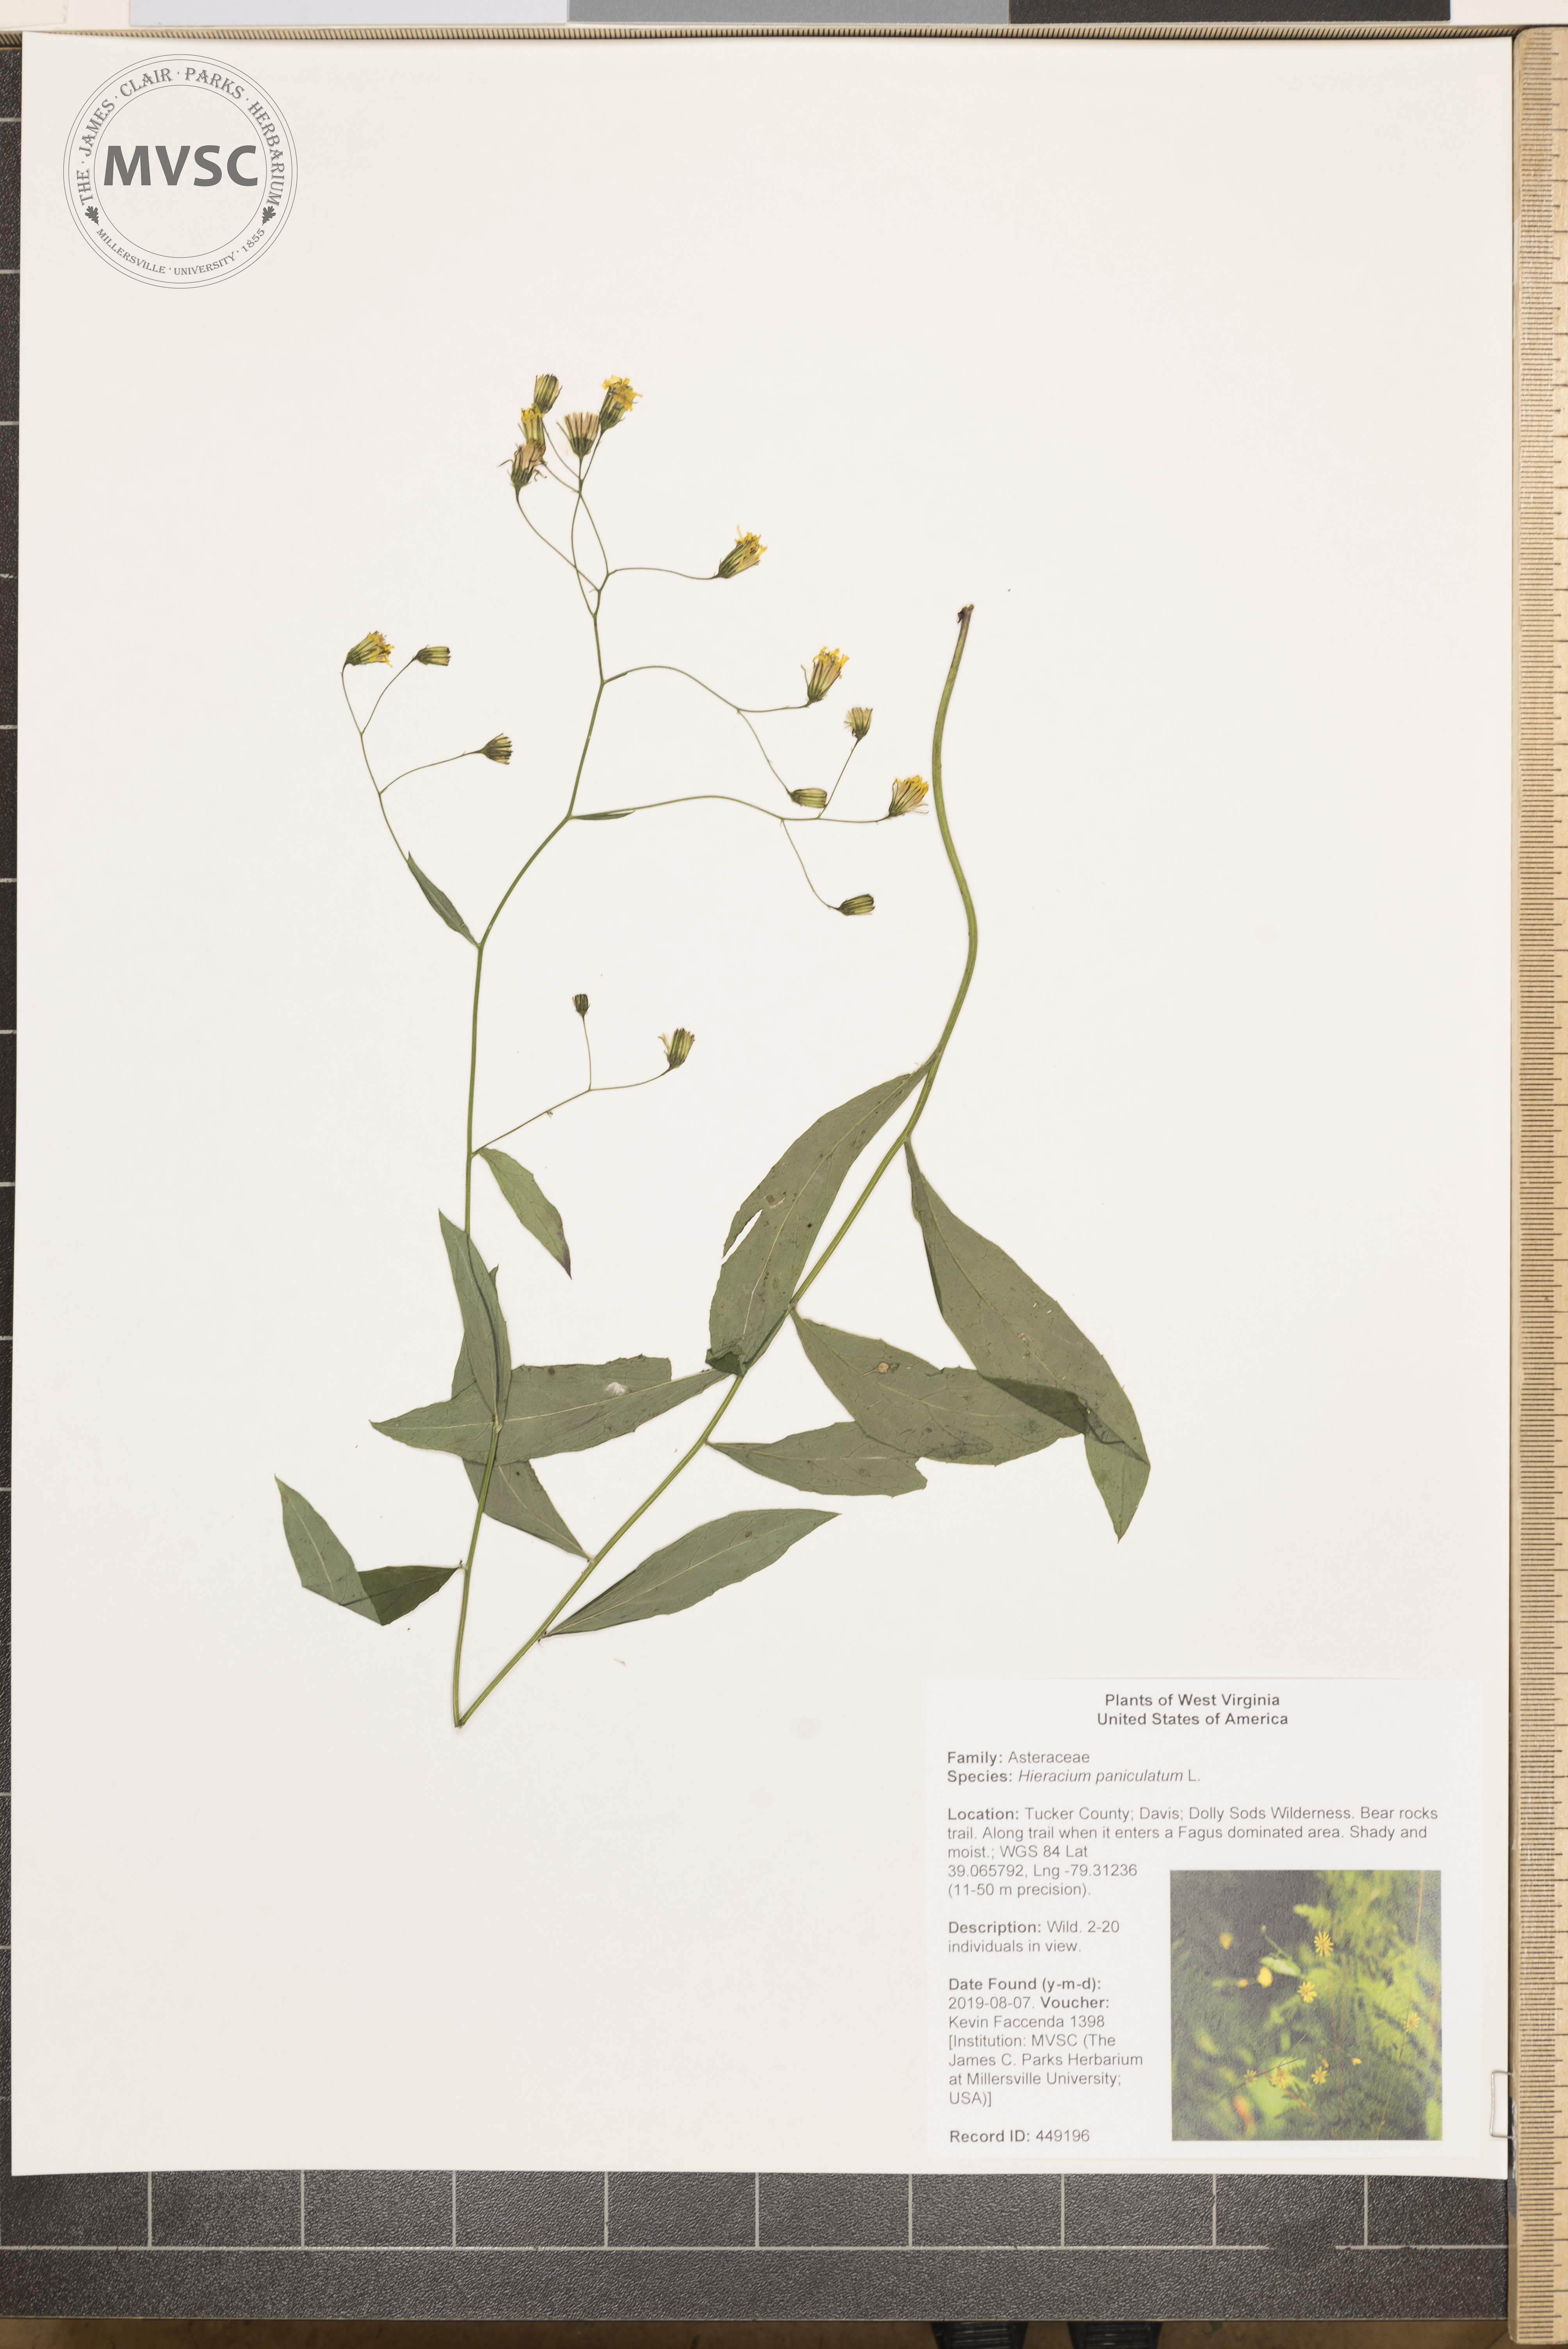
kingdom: Plantae
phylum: Tracheophyta
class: Magnoliopsida
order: Asterales
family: Asteraceae
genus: Hieracium
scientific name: Hieracium paniculatum
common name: Allegheny hawkweed
